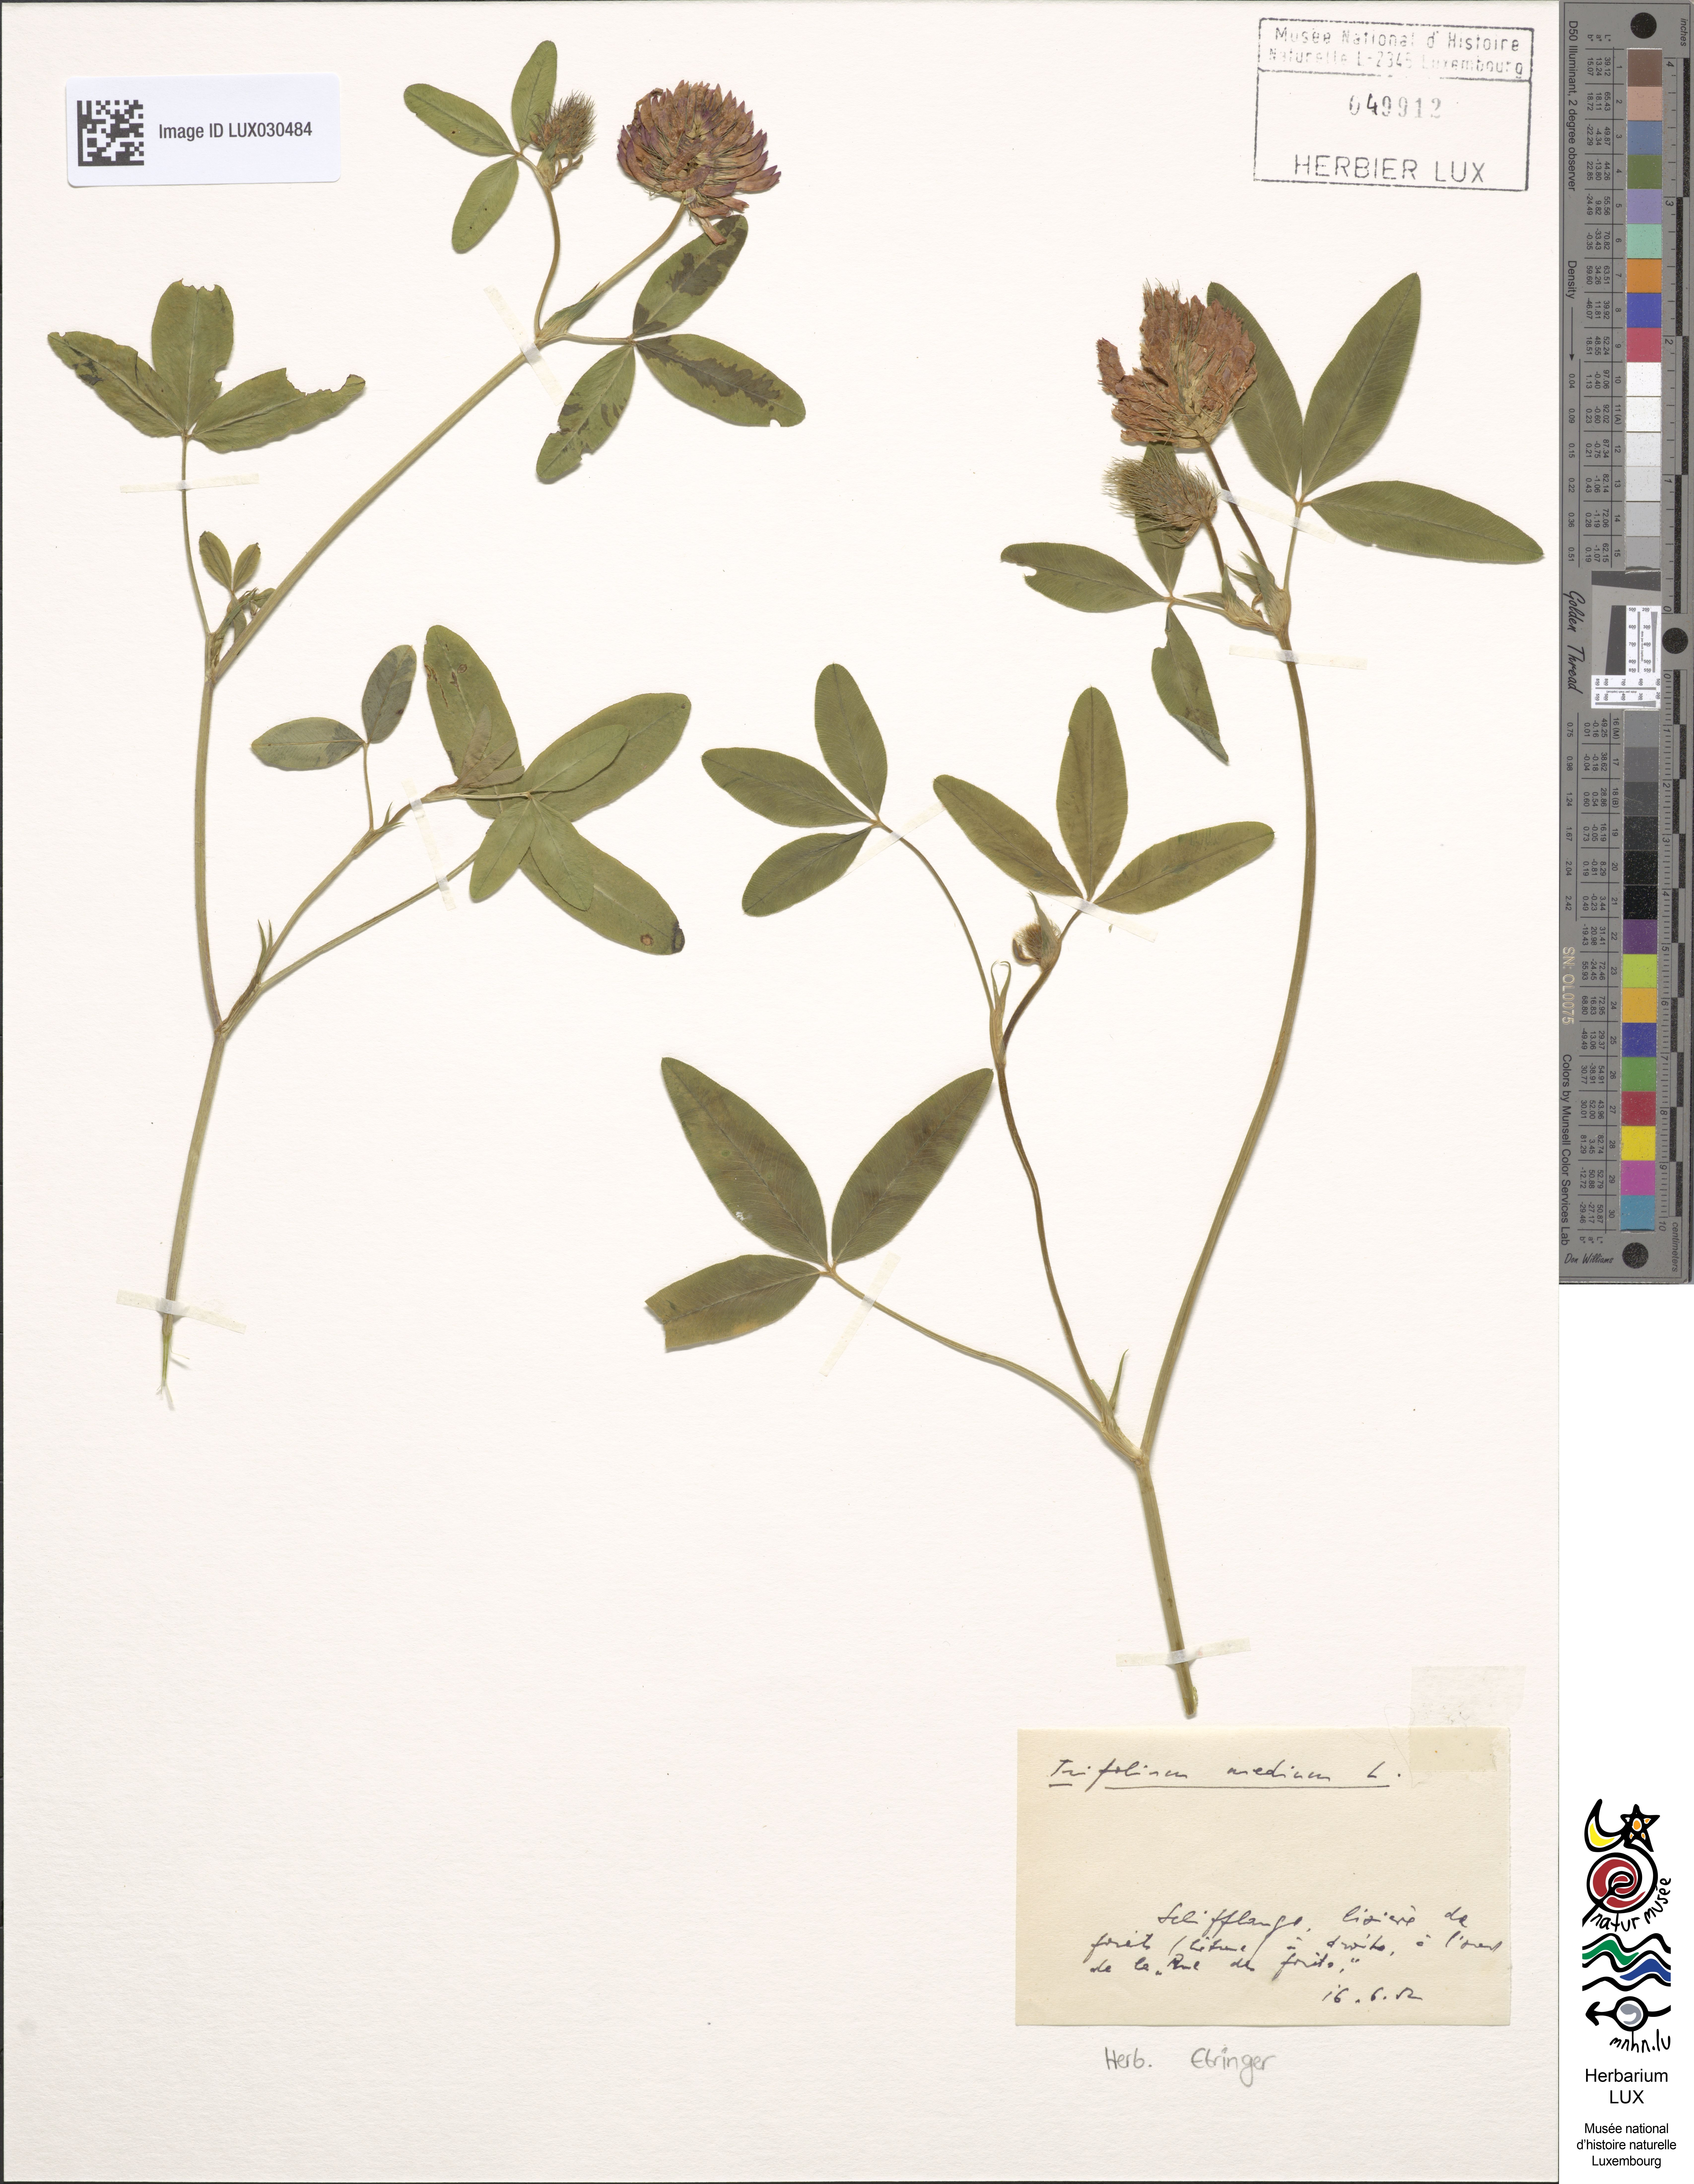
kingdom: Plantae
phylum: Tracheophyta
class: Magnoliopsida
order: Fabales
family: Fabaceae
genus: Trifolium
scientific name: Trifolium medium
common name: Zigzag clover
